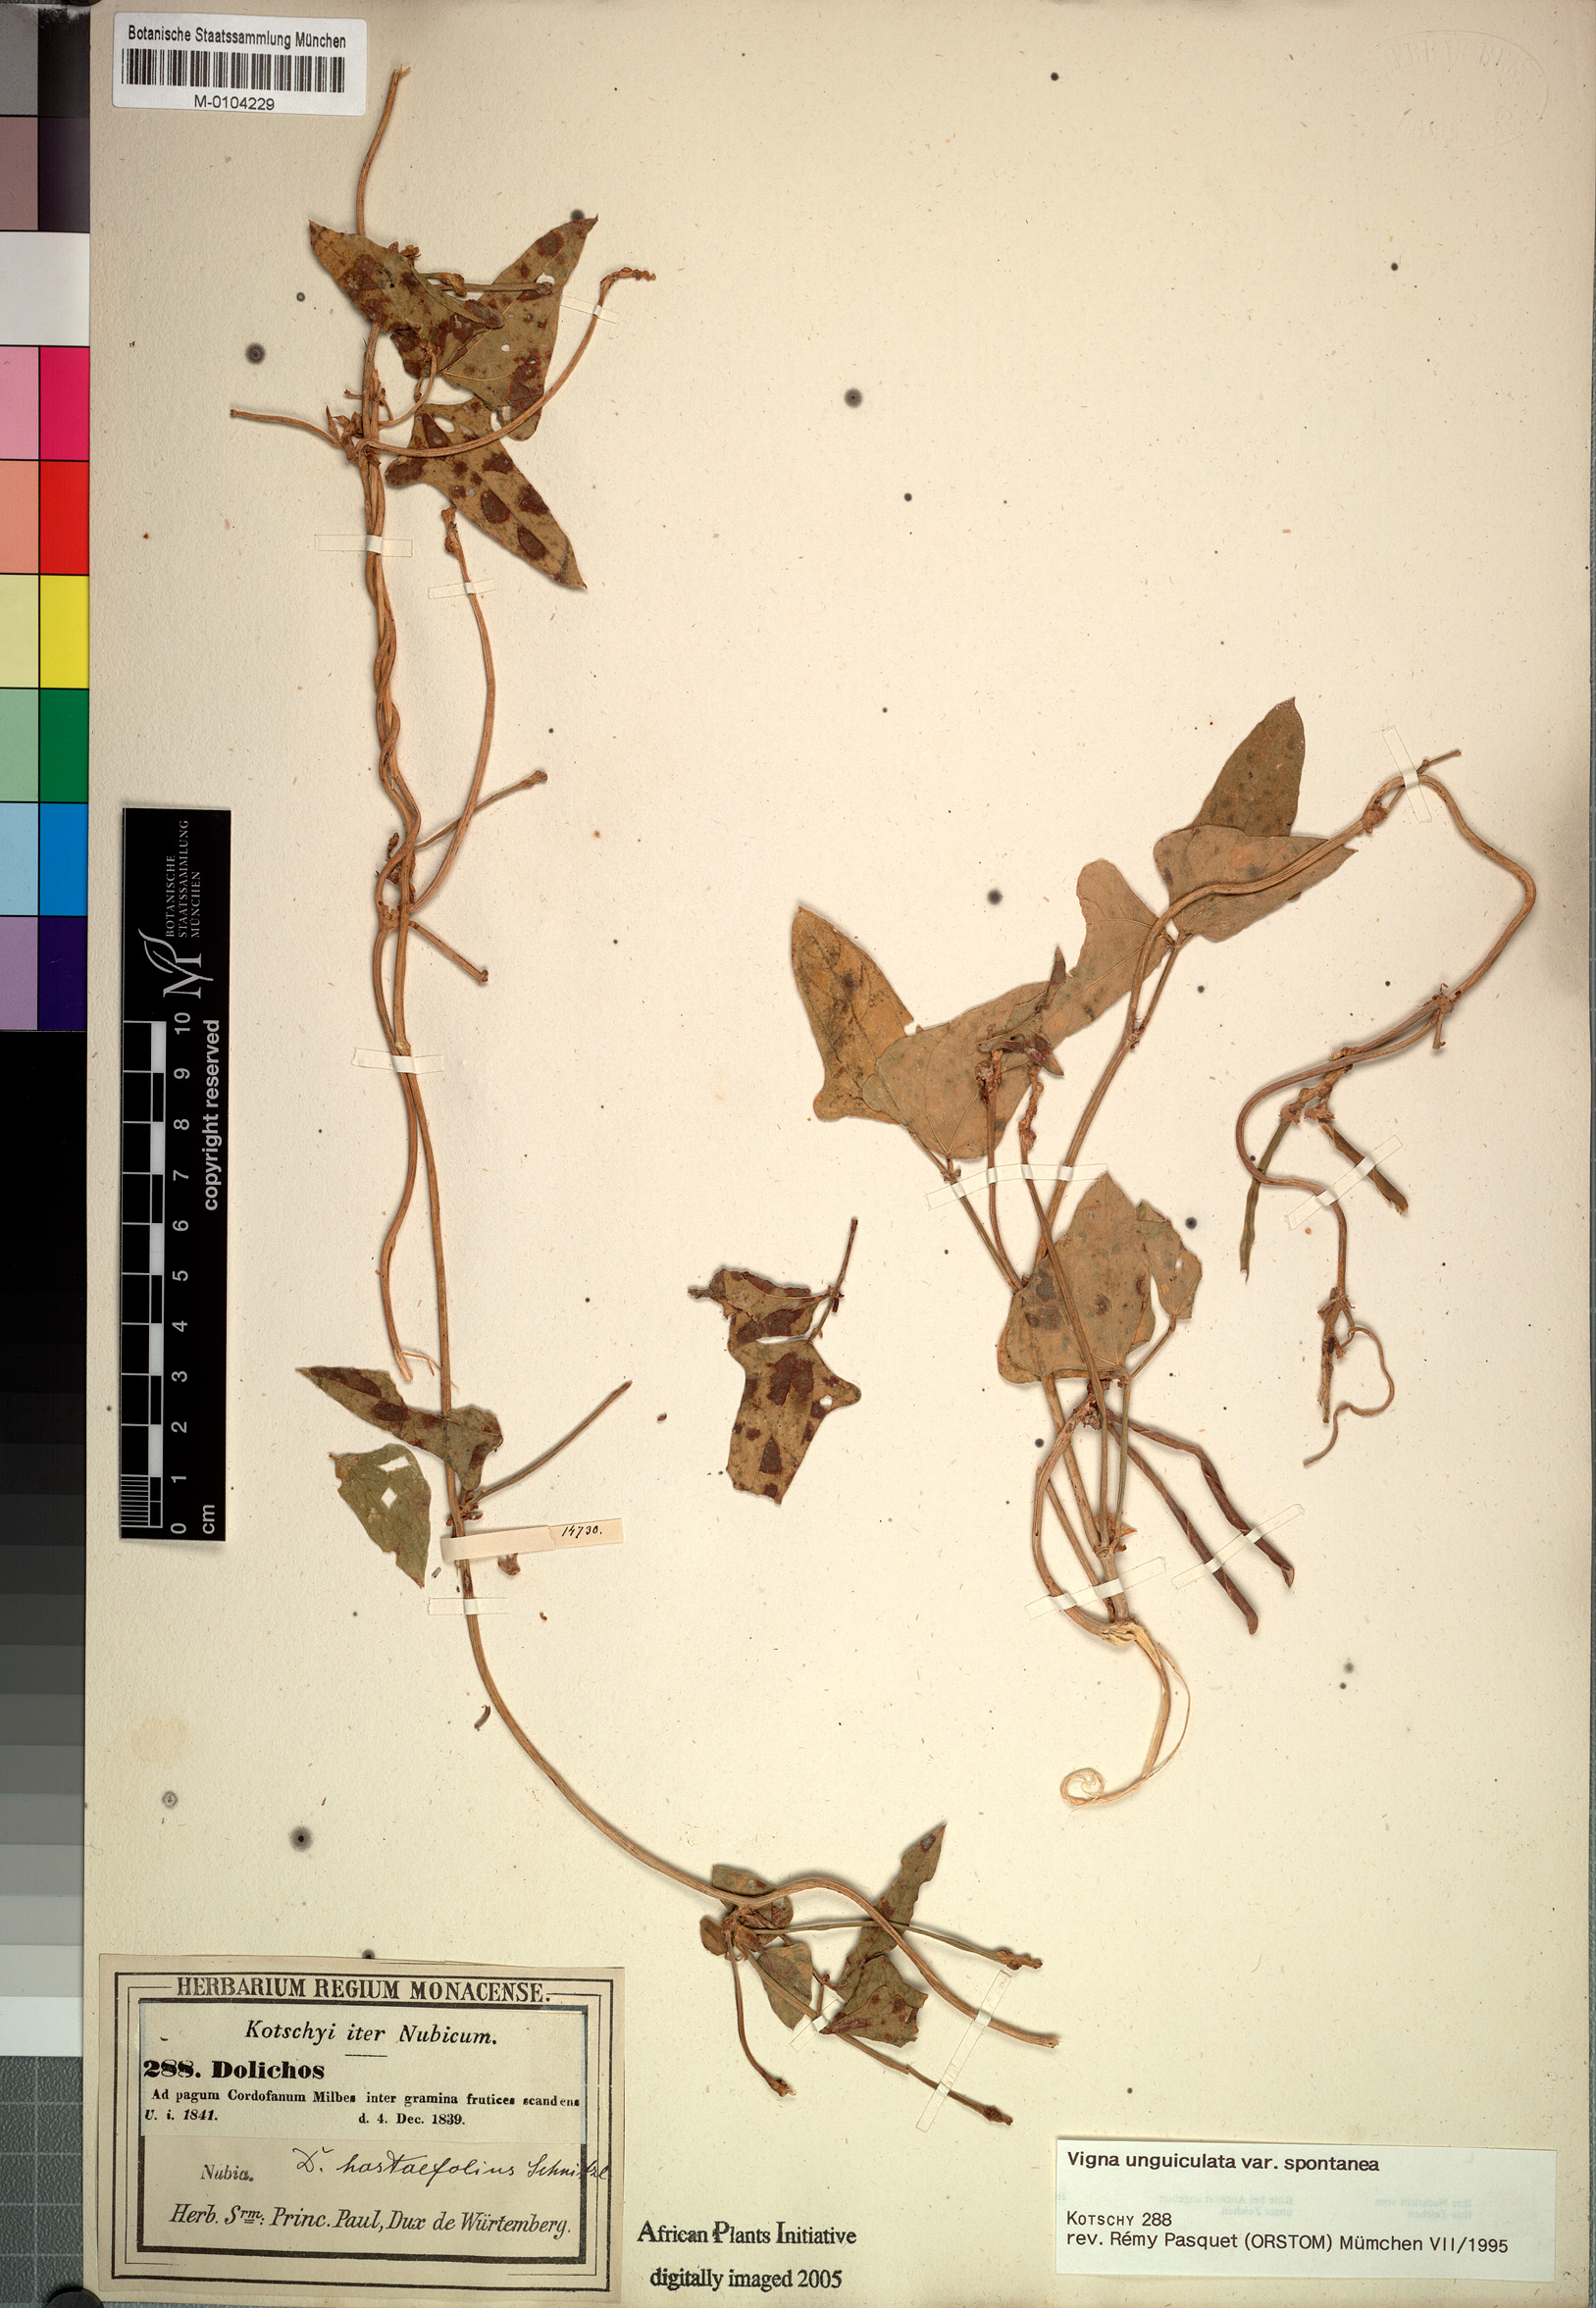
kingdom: Plantae
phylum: Tracheophyta
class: Magnoliopsida
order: Fabales
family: Fabaceae
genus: Vigna
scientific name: Vigna unguiculata
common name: Cowpea
